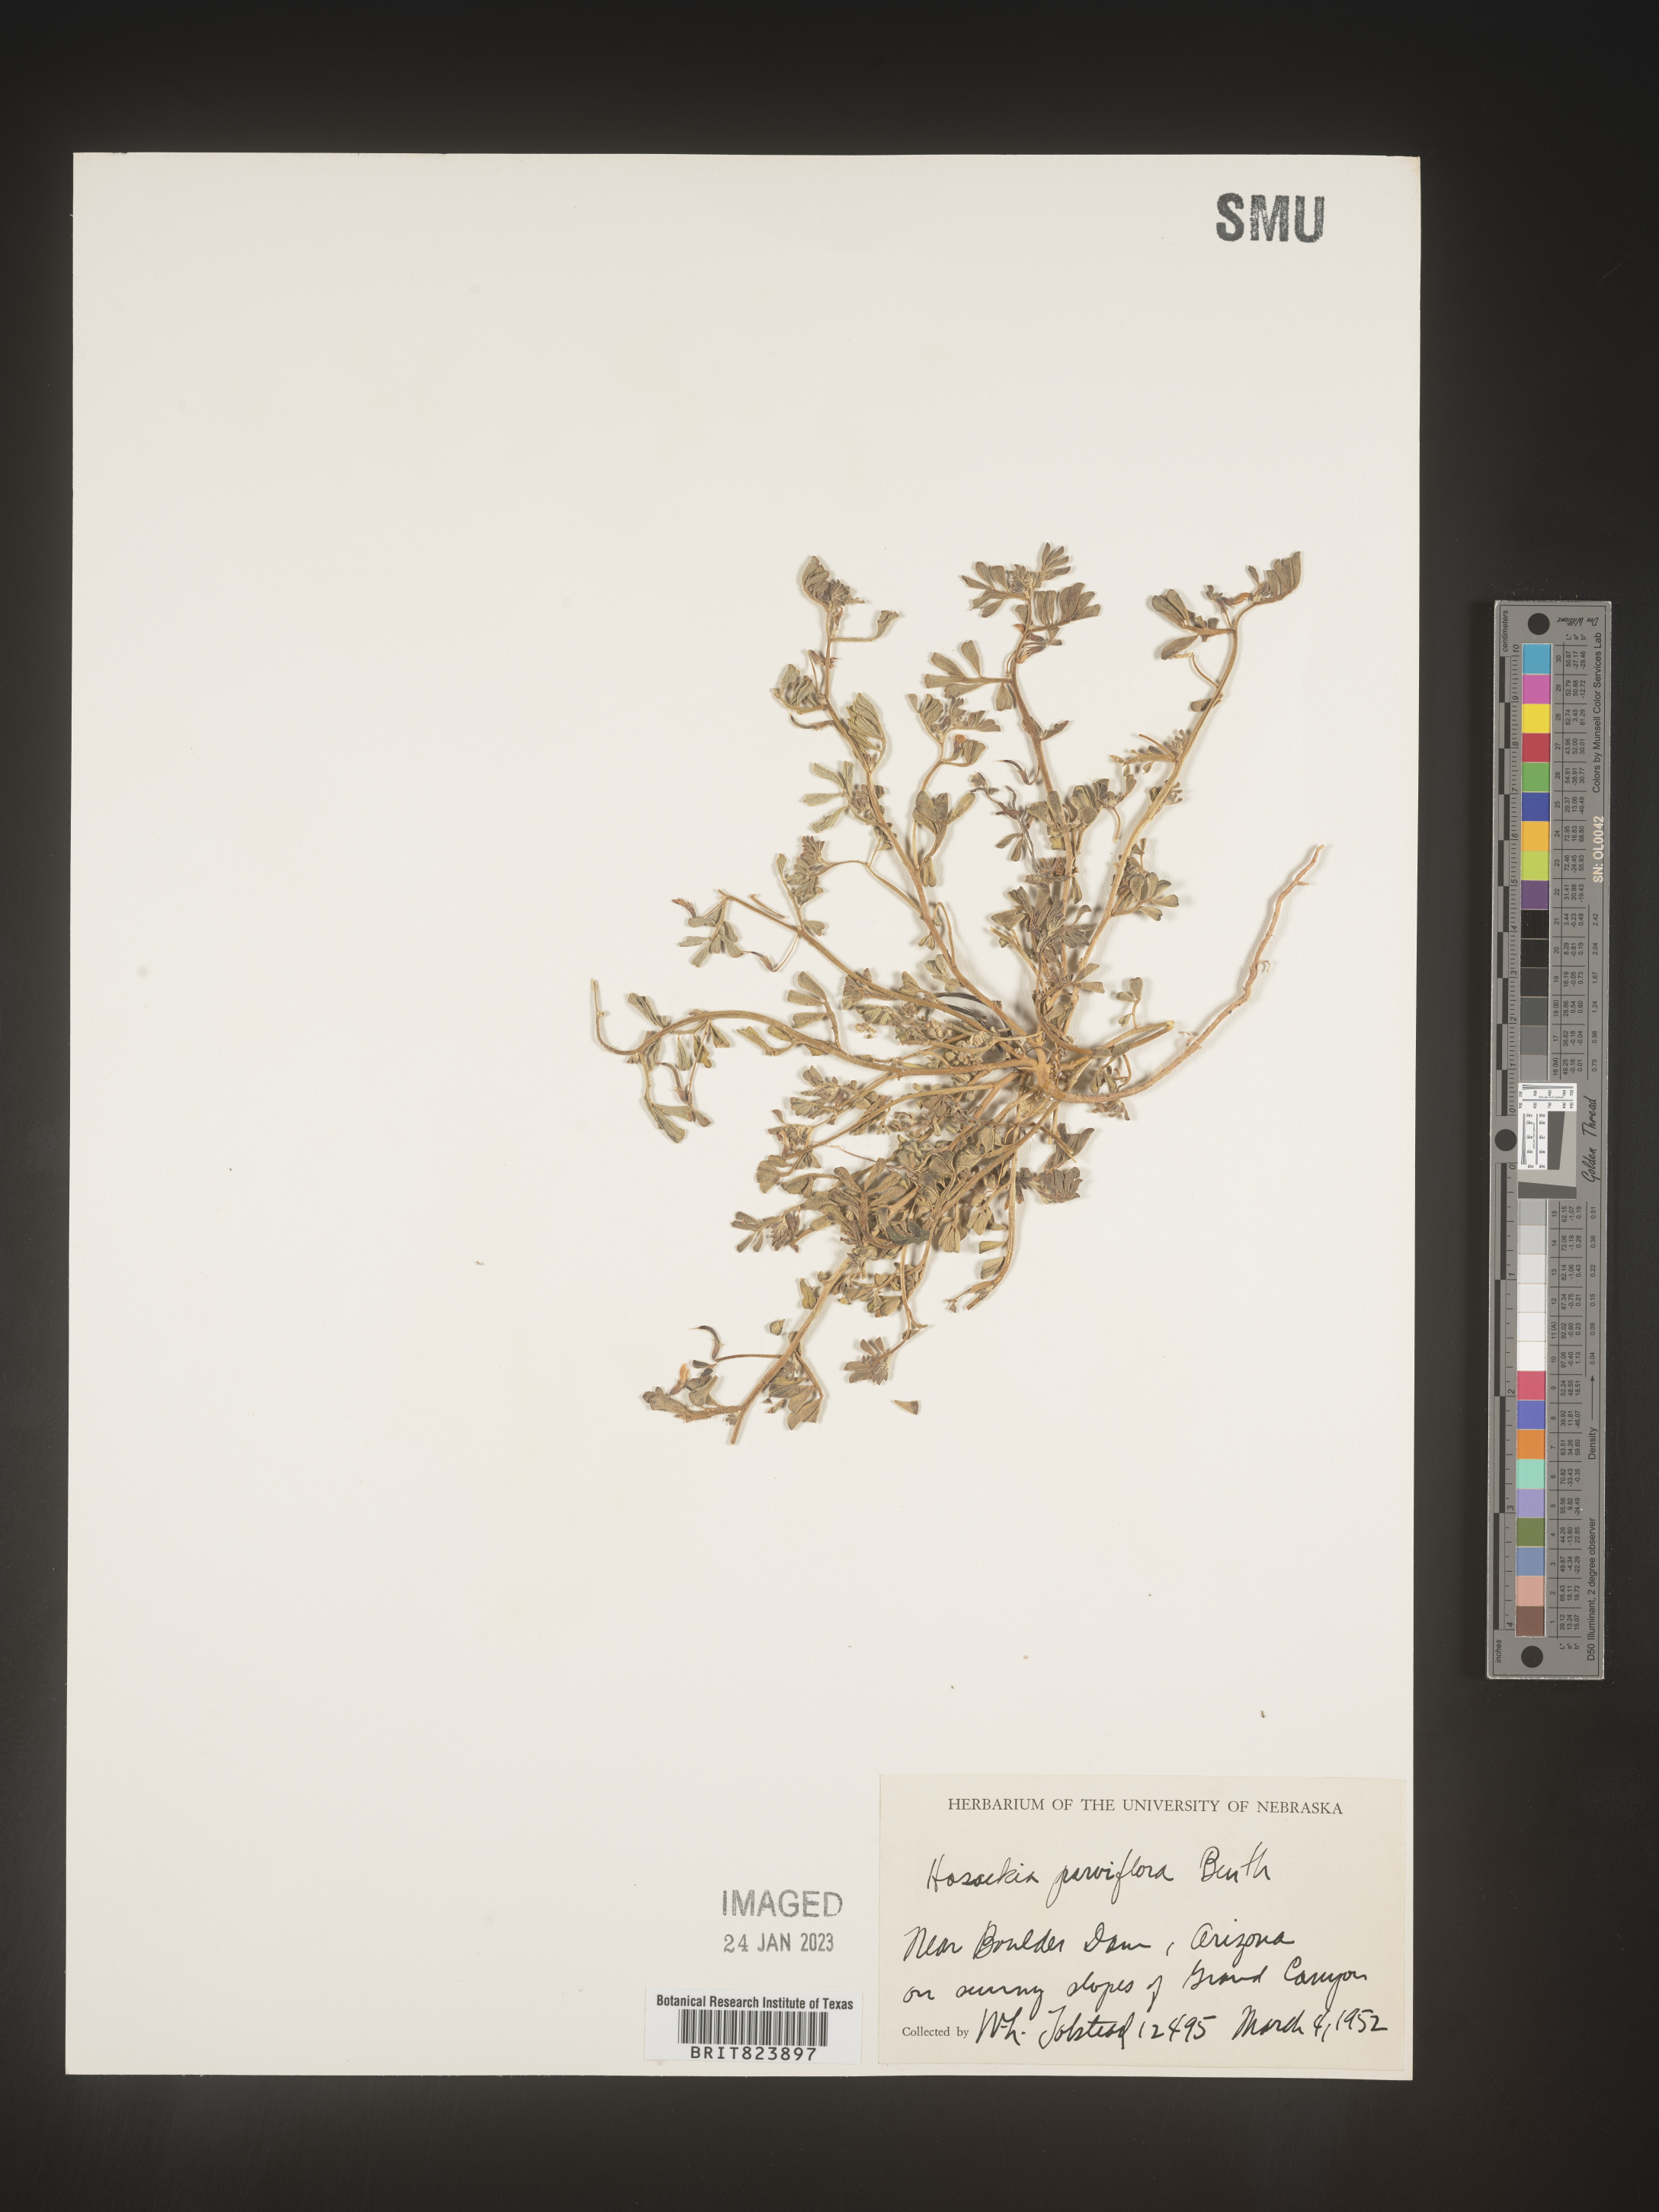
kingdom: Plantae
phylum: Tracheophyta
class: Magnoliopsida
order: Fabales
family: Fabaceae
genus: Lotus
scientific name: Lotus
